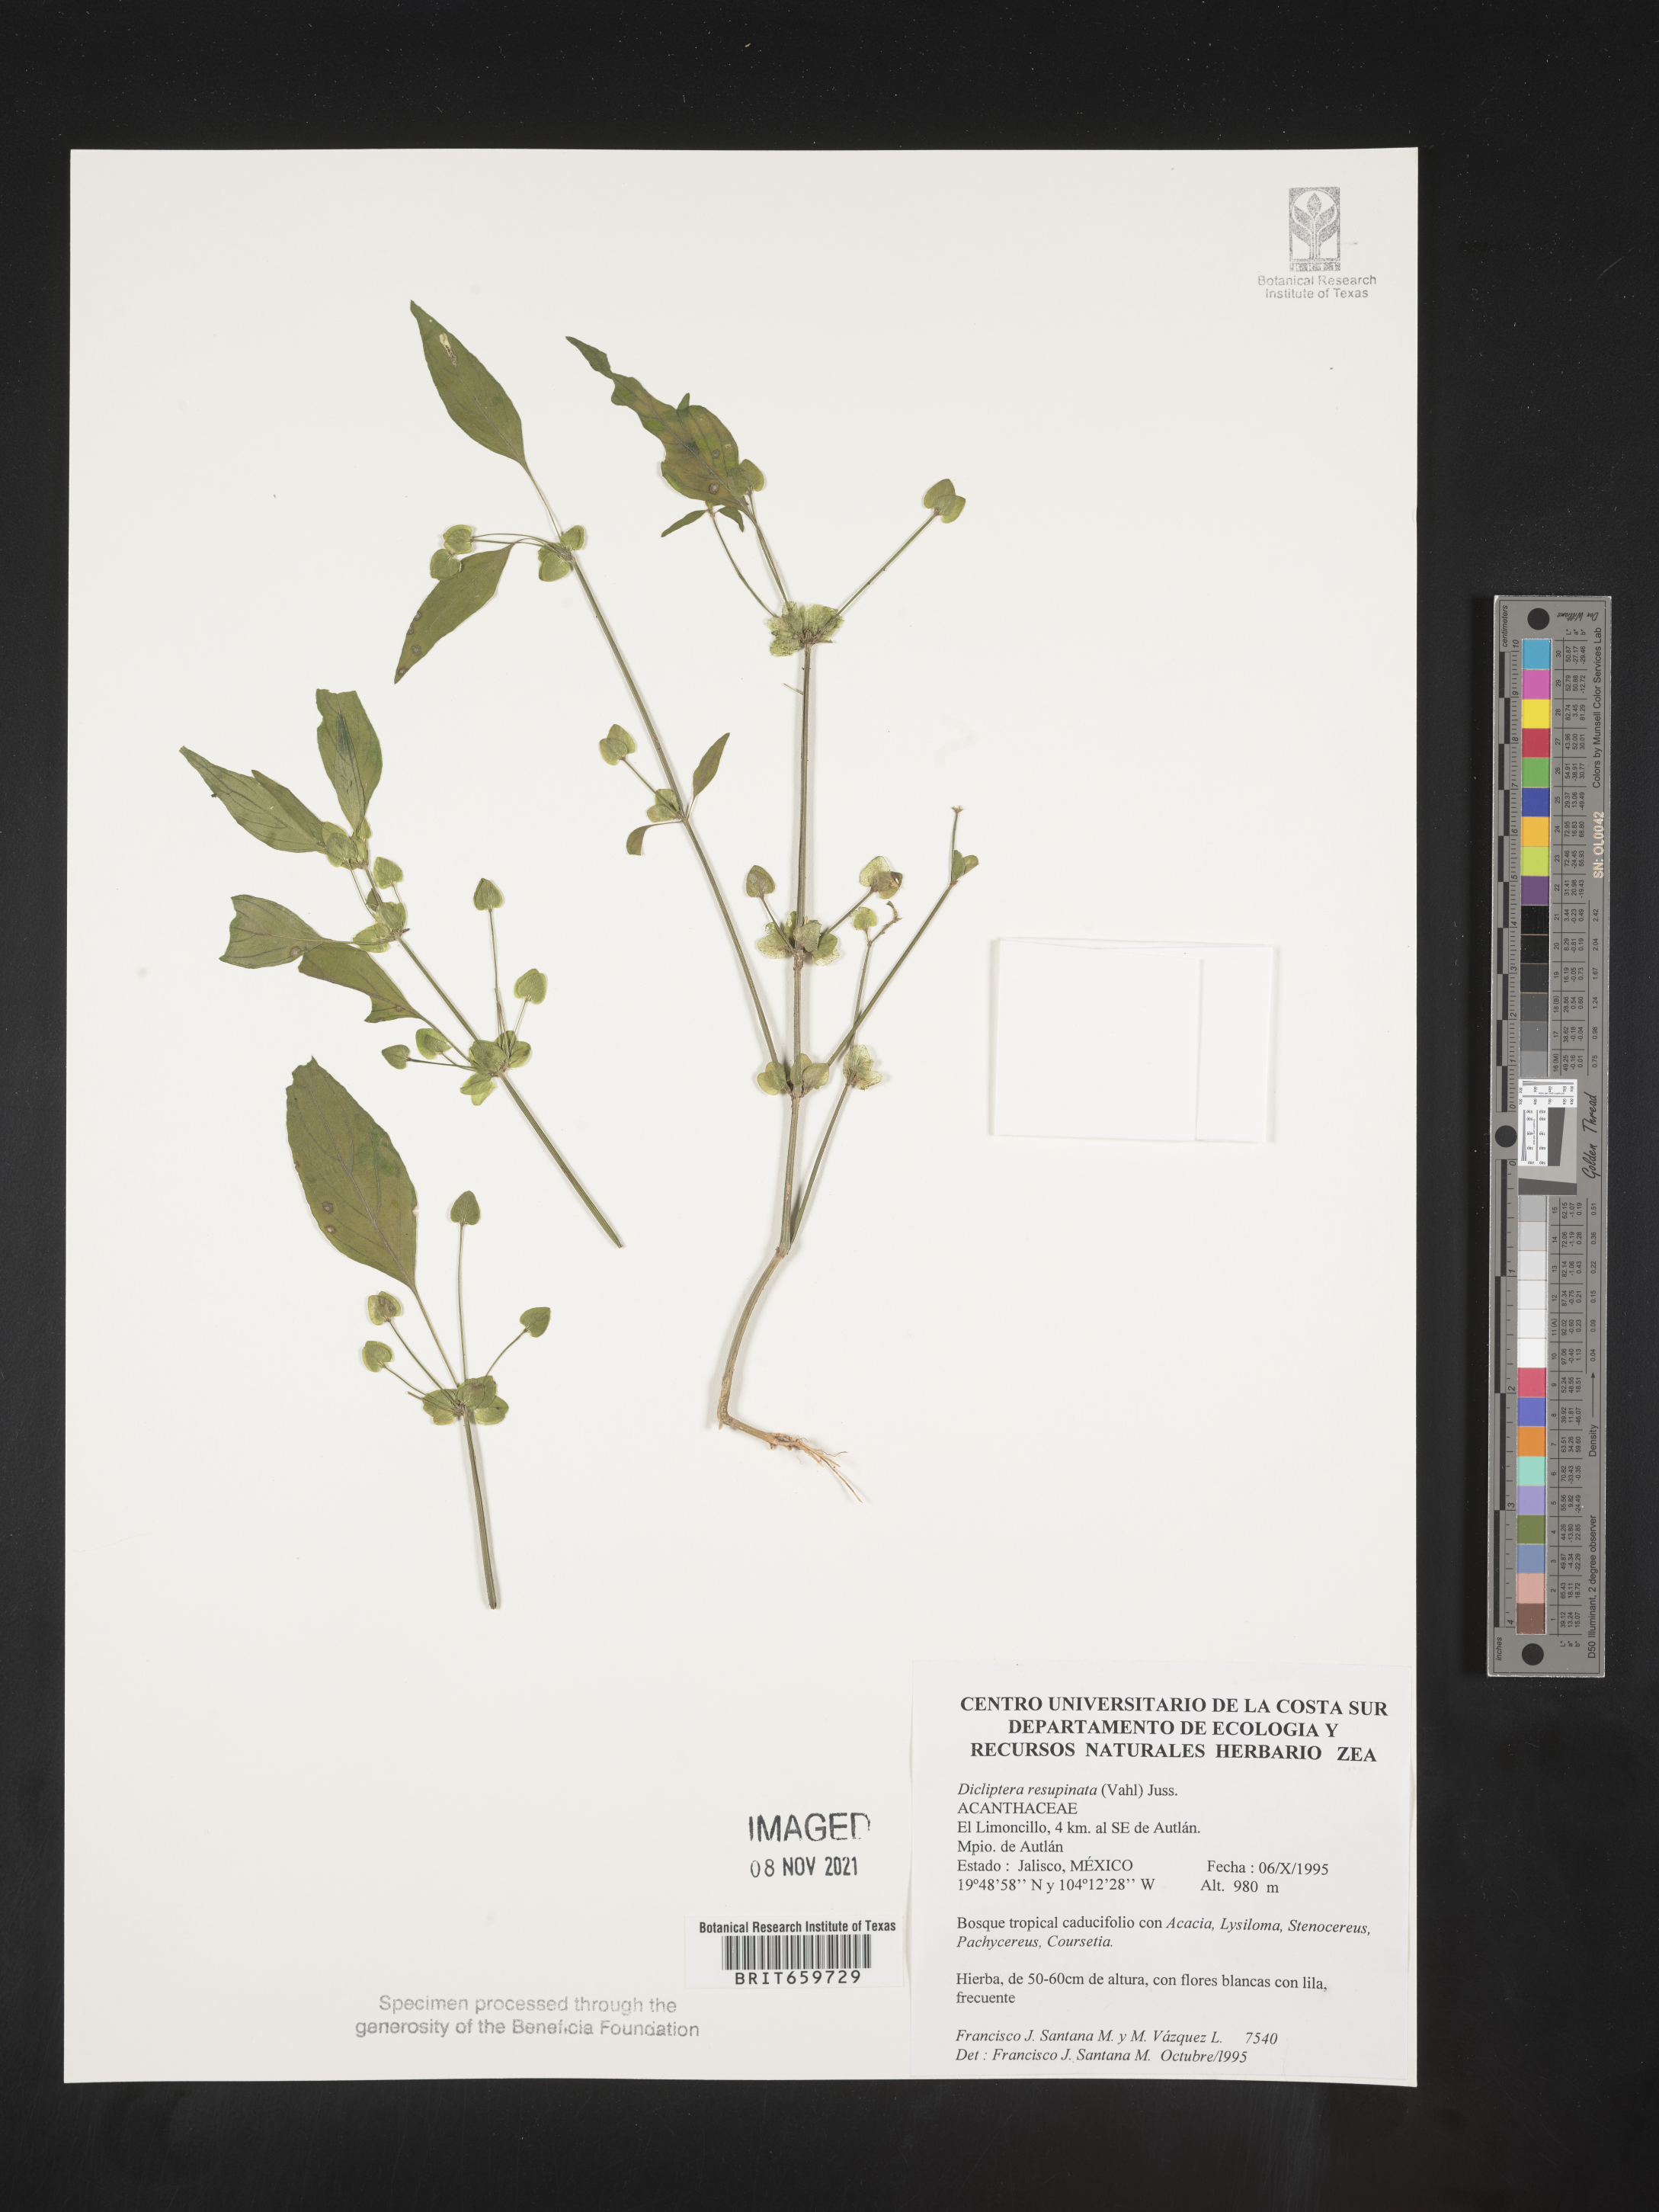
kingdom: Plantae
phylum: Tracheophyta
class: Magnoliopsida
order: Lamiales
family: Acanthaceae
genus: Dicliptera
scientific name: Dicliptera
